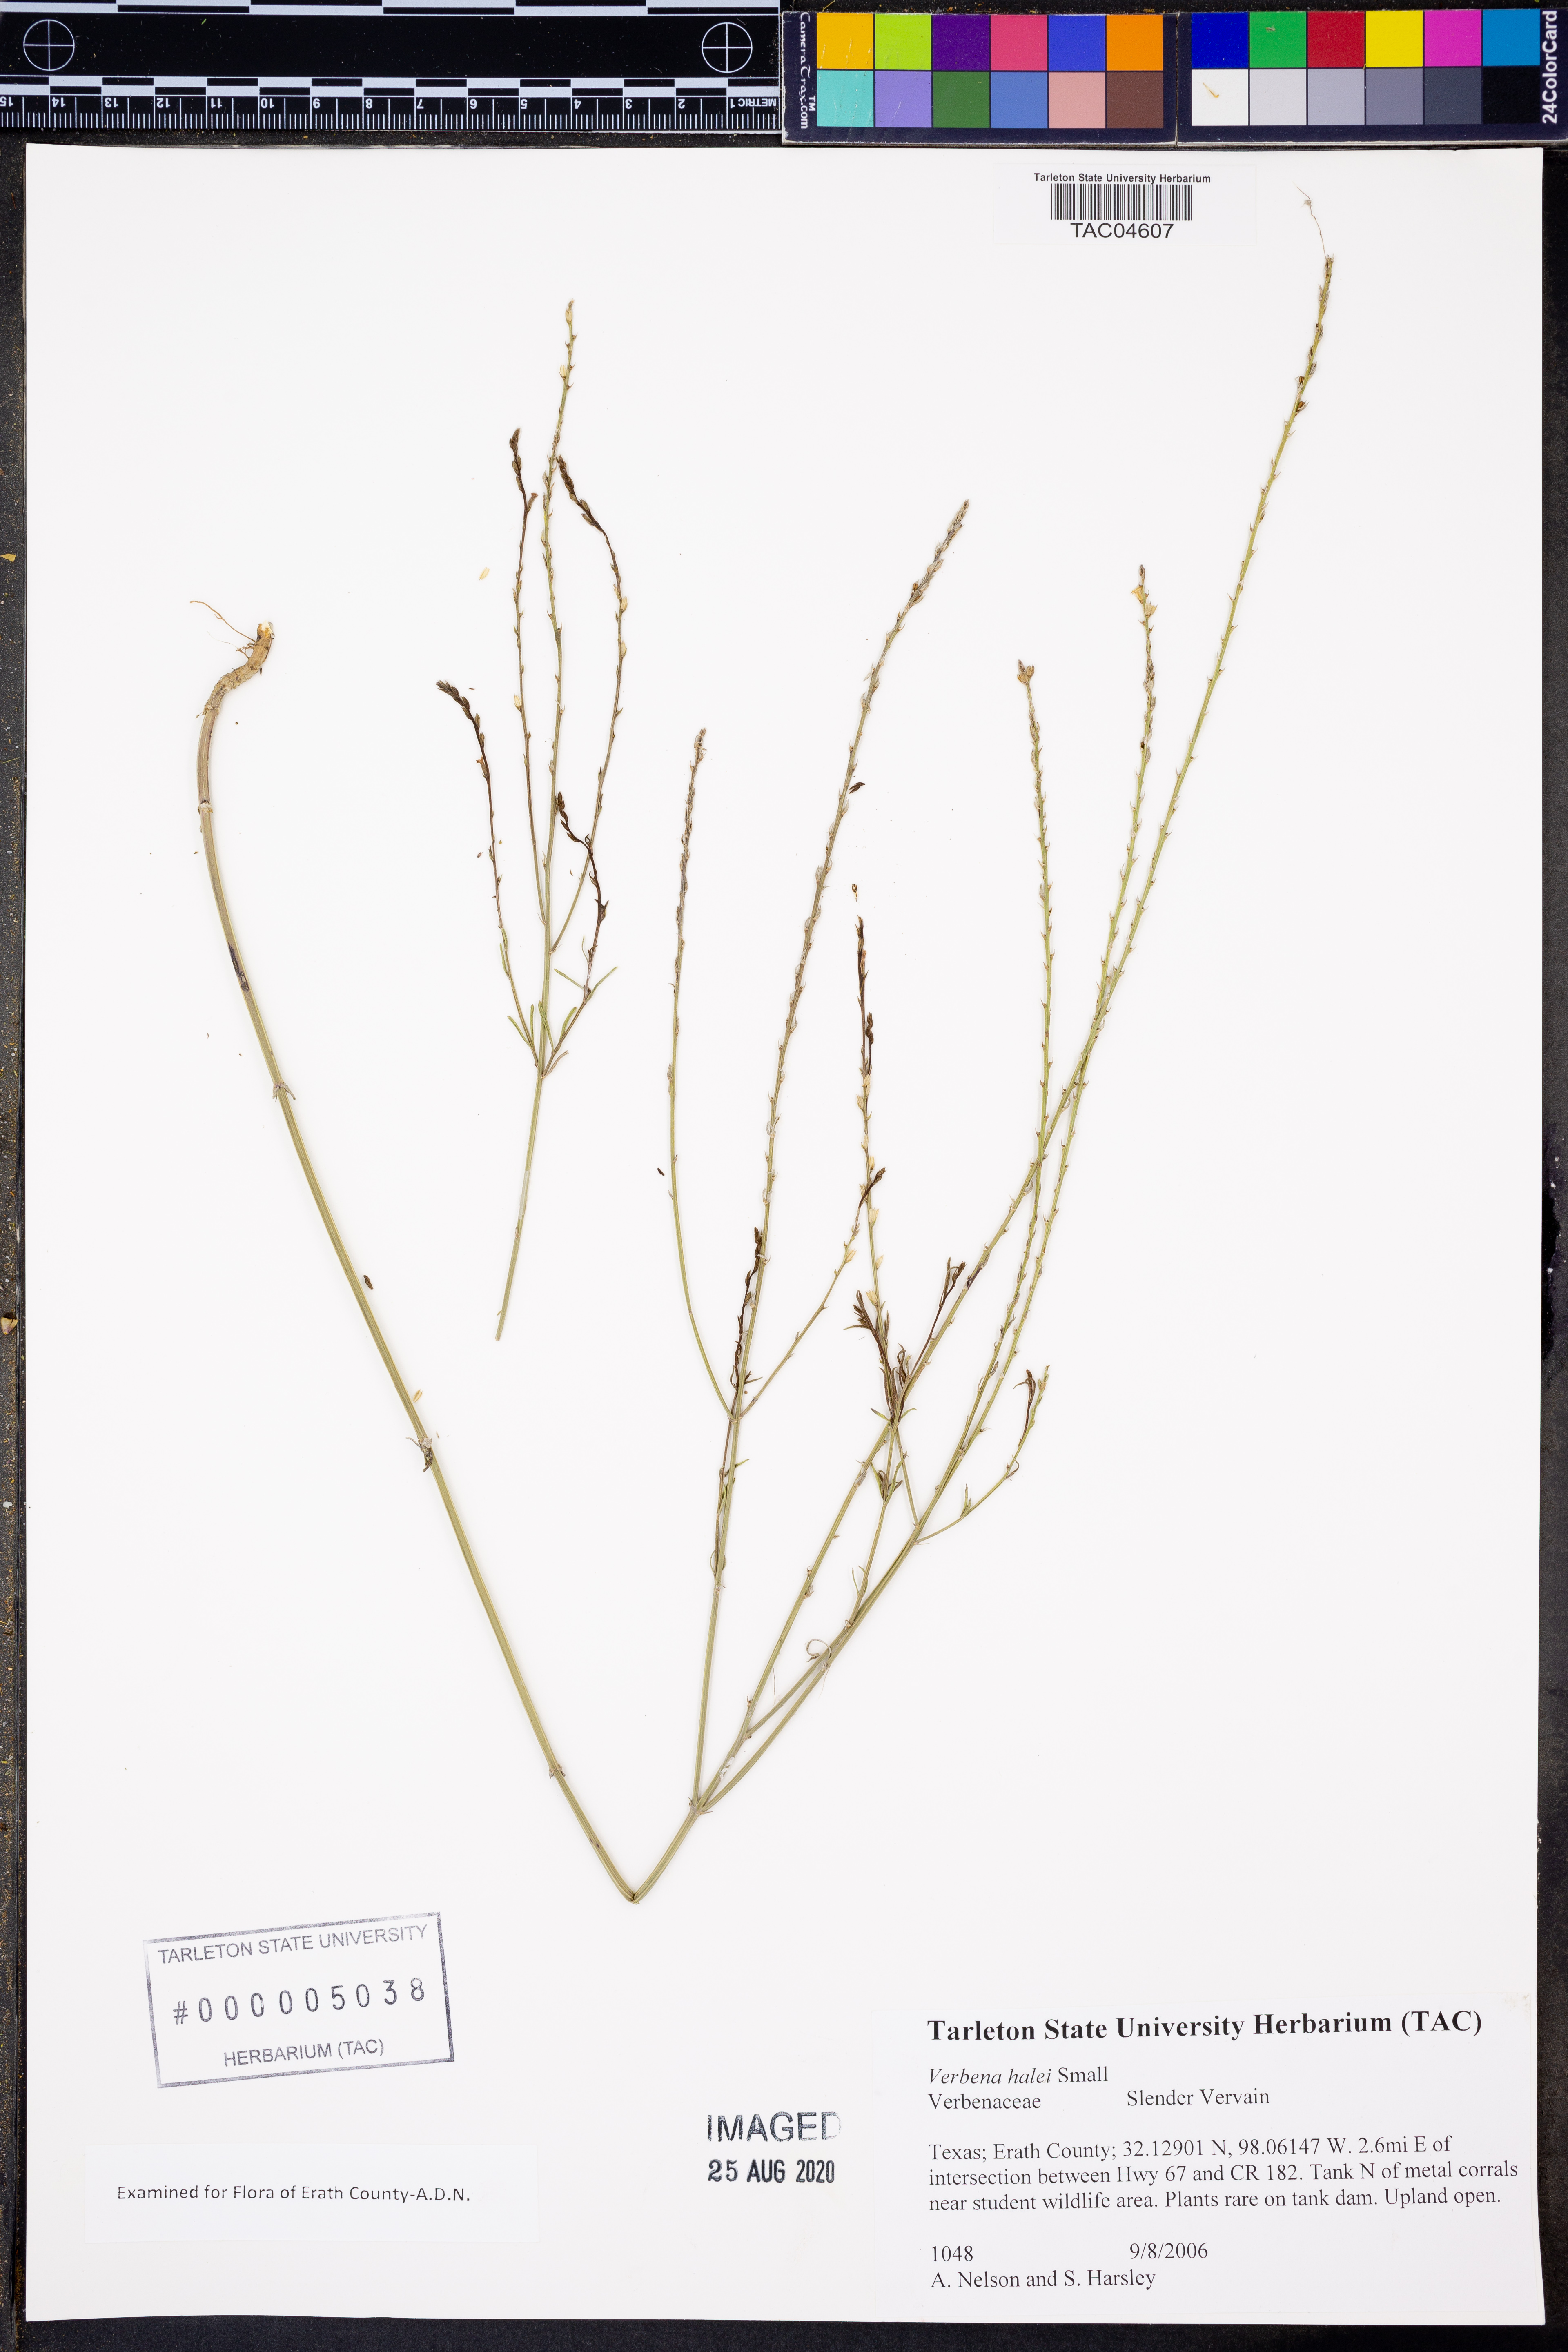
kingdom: Plantae
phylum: Tracheophyta
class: Magnoliopsida
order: Lamiales
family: Verbenaceae
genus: Verbena
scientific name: Verbena halei
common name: Texas vervain
